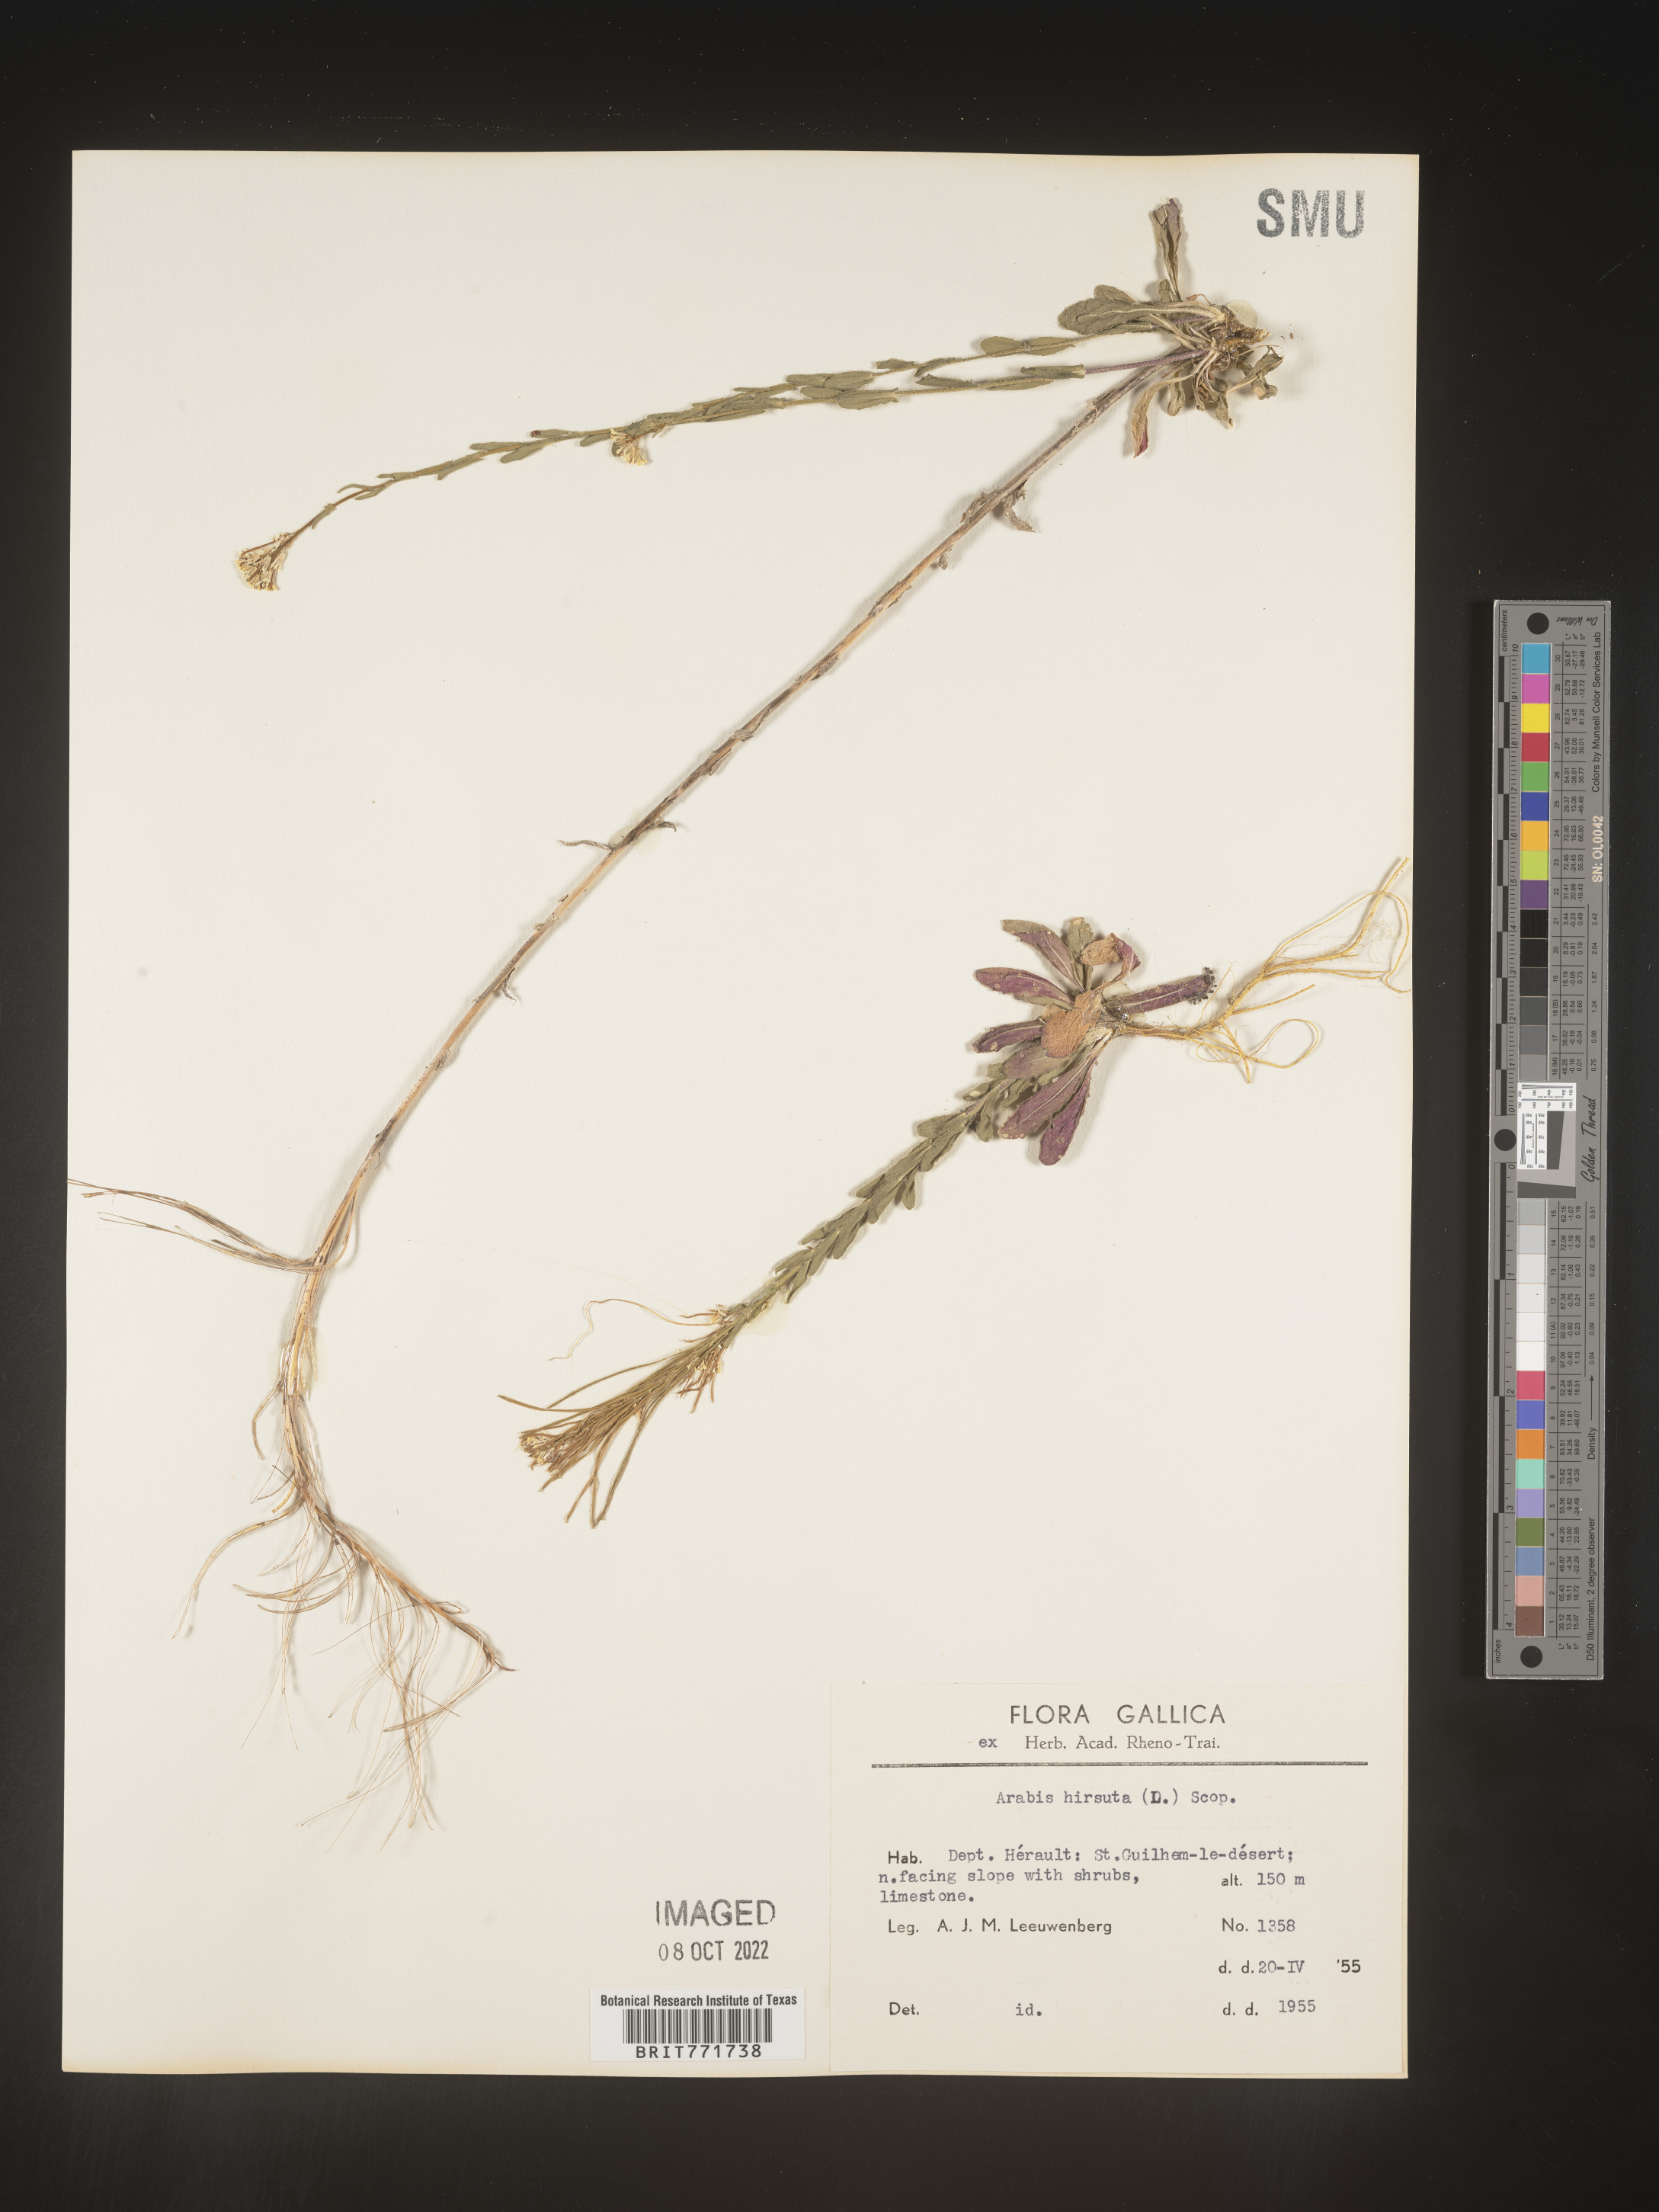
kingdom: Plantae
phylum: Tracheophyta
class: Magnoliopsida
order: Brassicales
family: Brassicaceae
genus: Arabis
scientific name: Arabis
